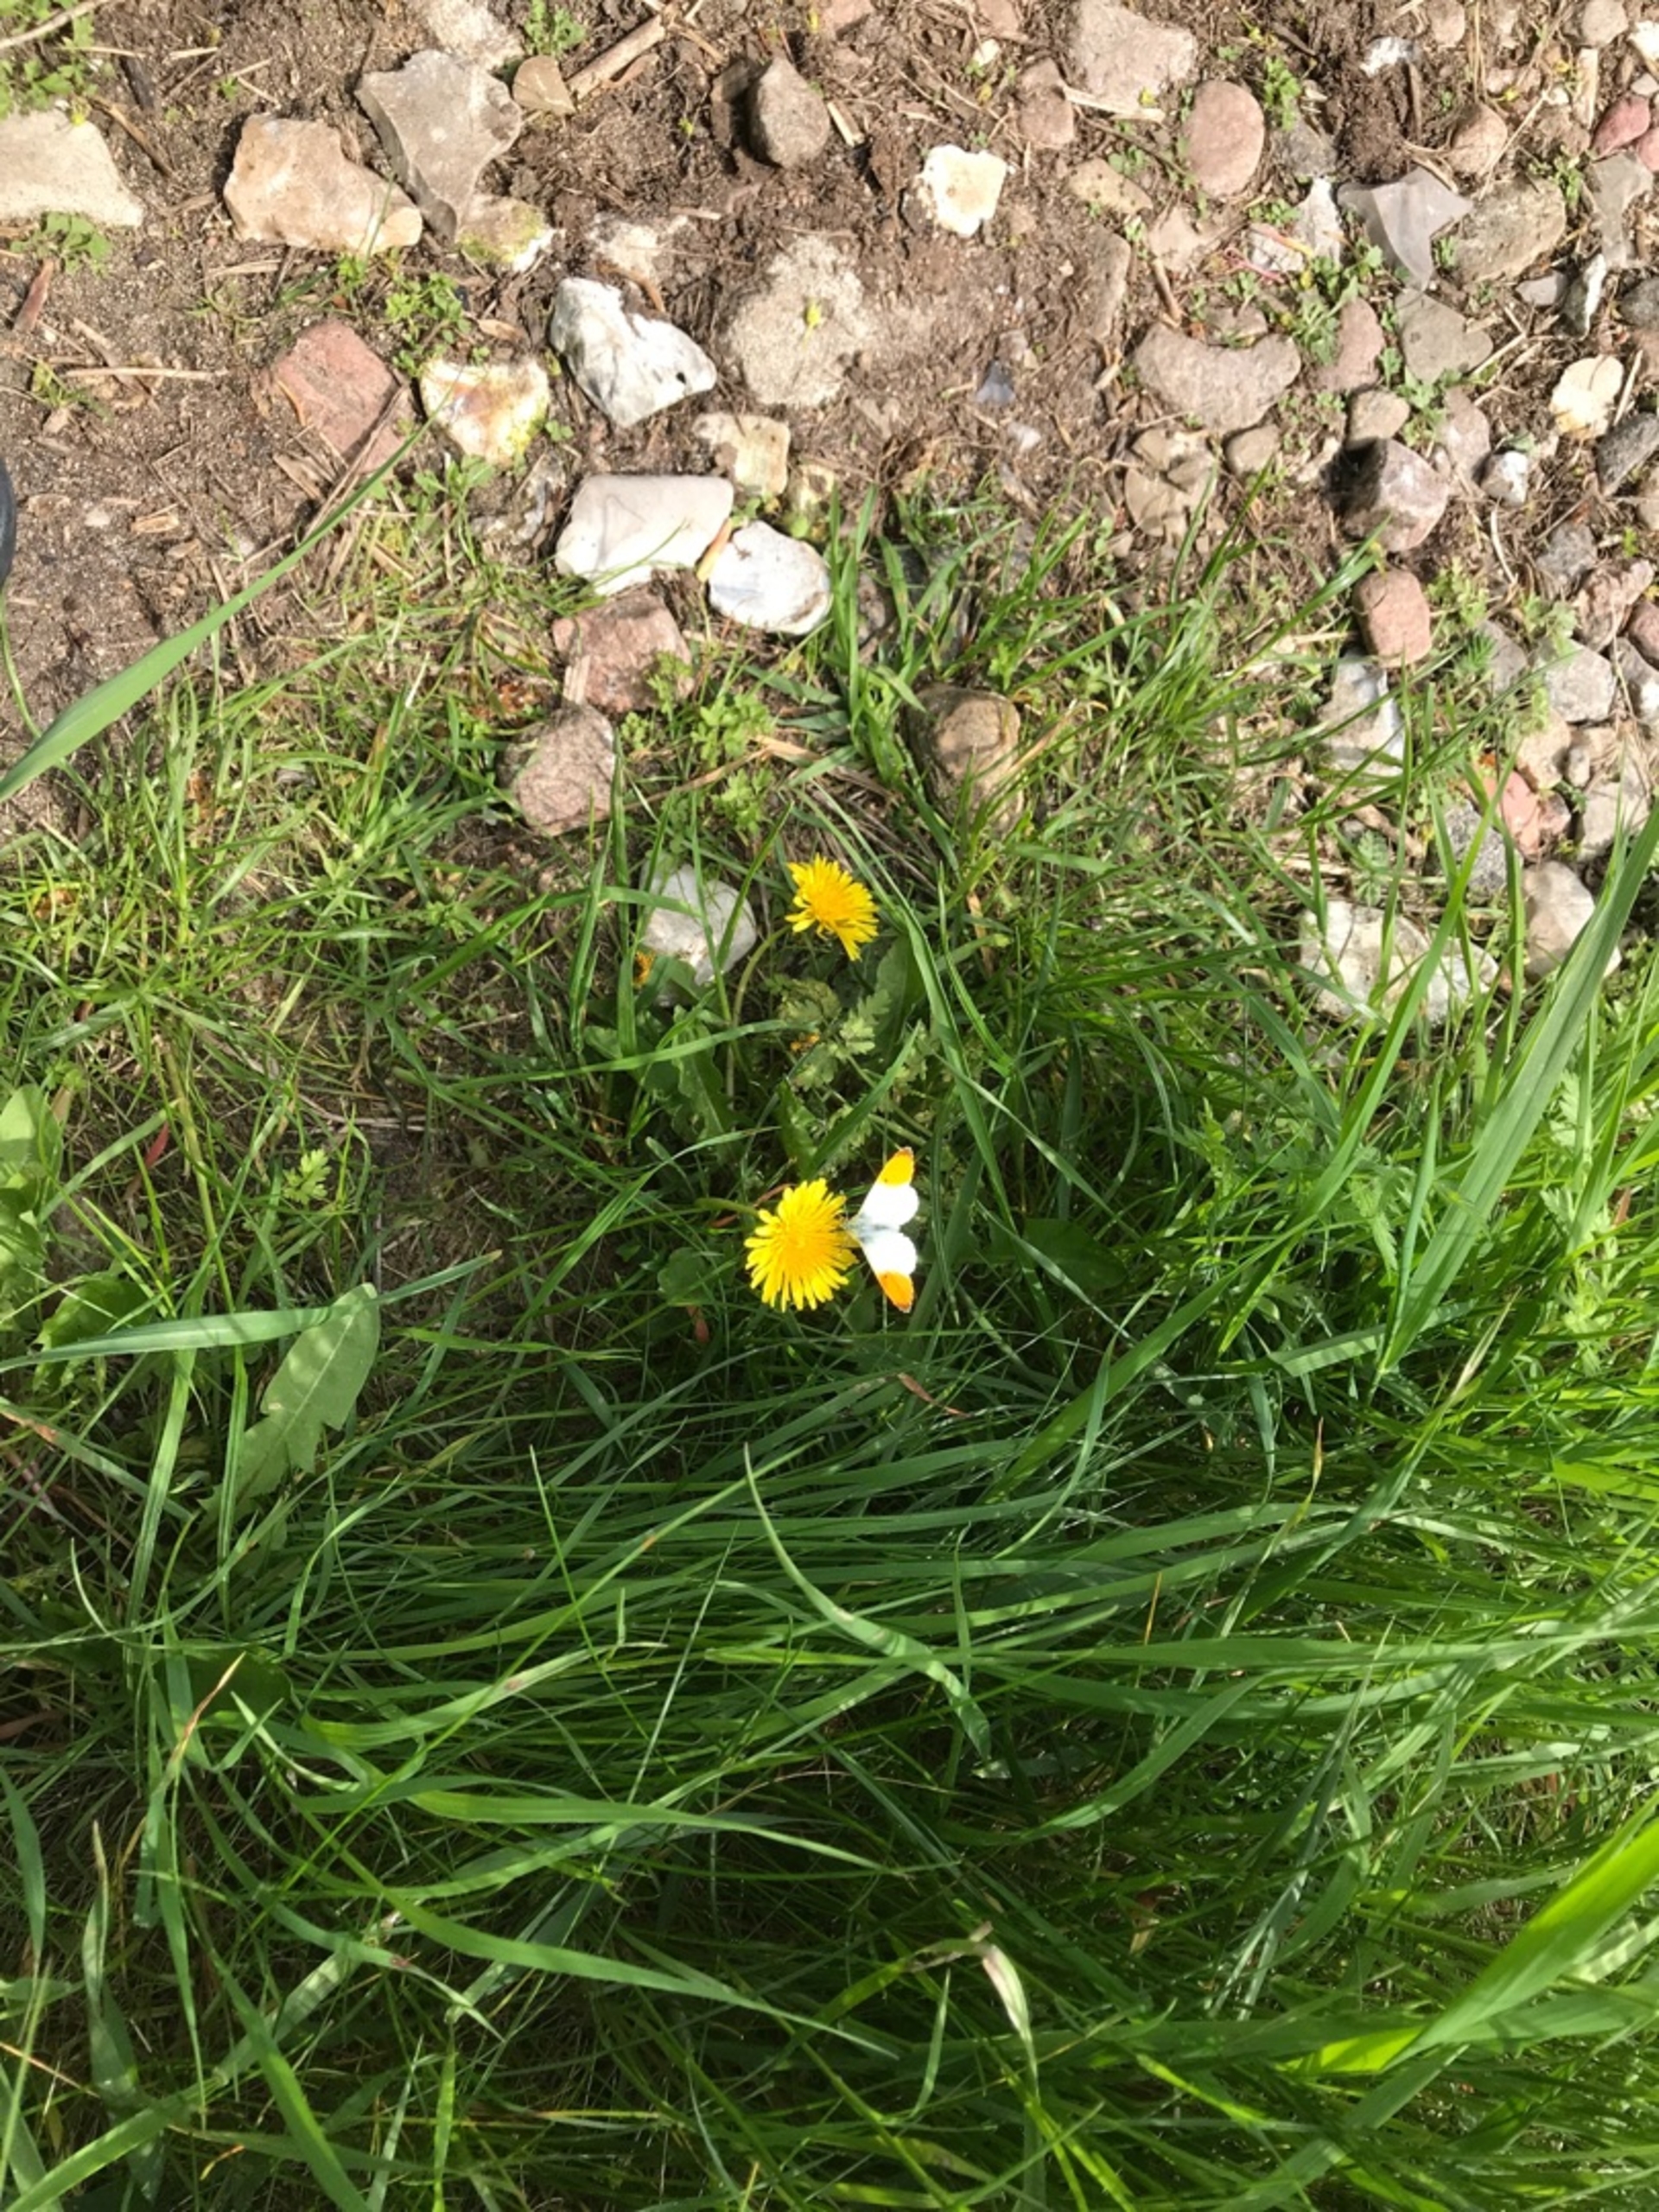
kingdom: Animalia
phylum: Arthropoda
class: Insecta
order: Lepidoptera
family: Pieridae
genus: Anthocharis
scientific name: Anthocharis cardamines
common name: Aurora
